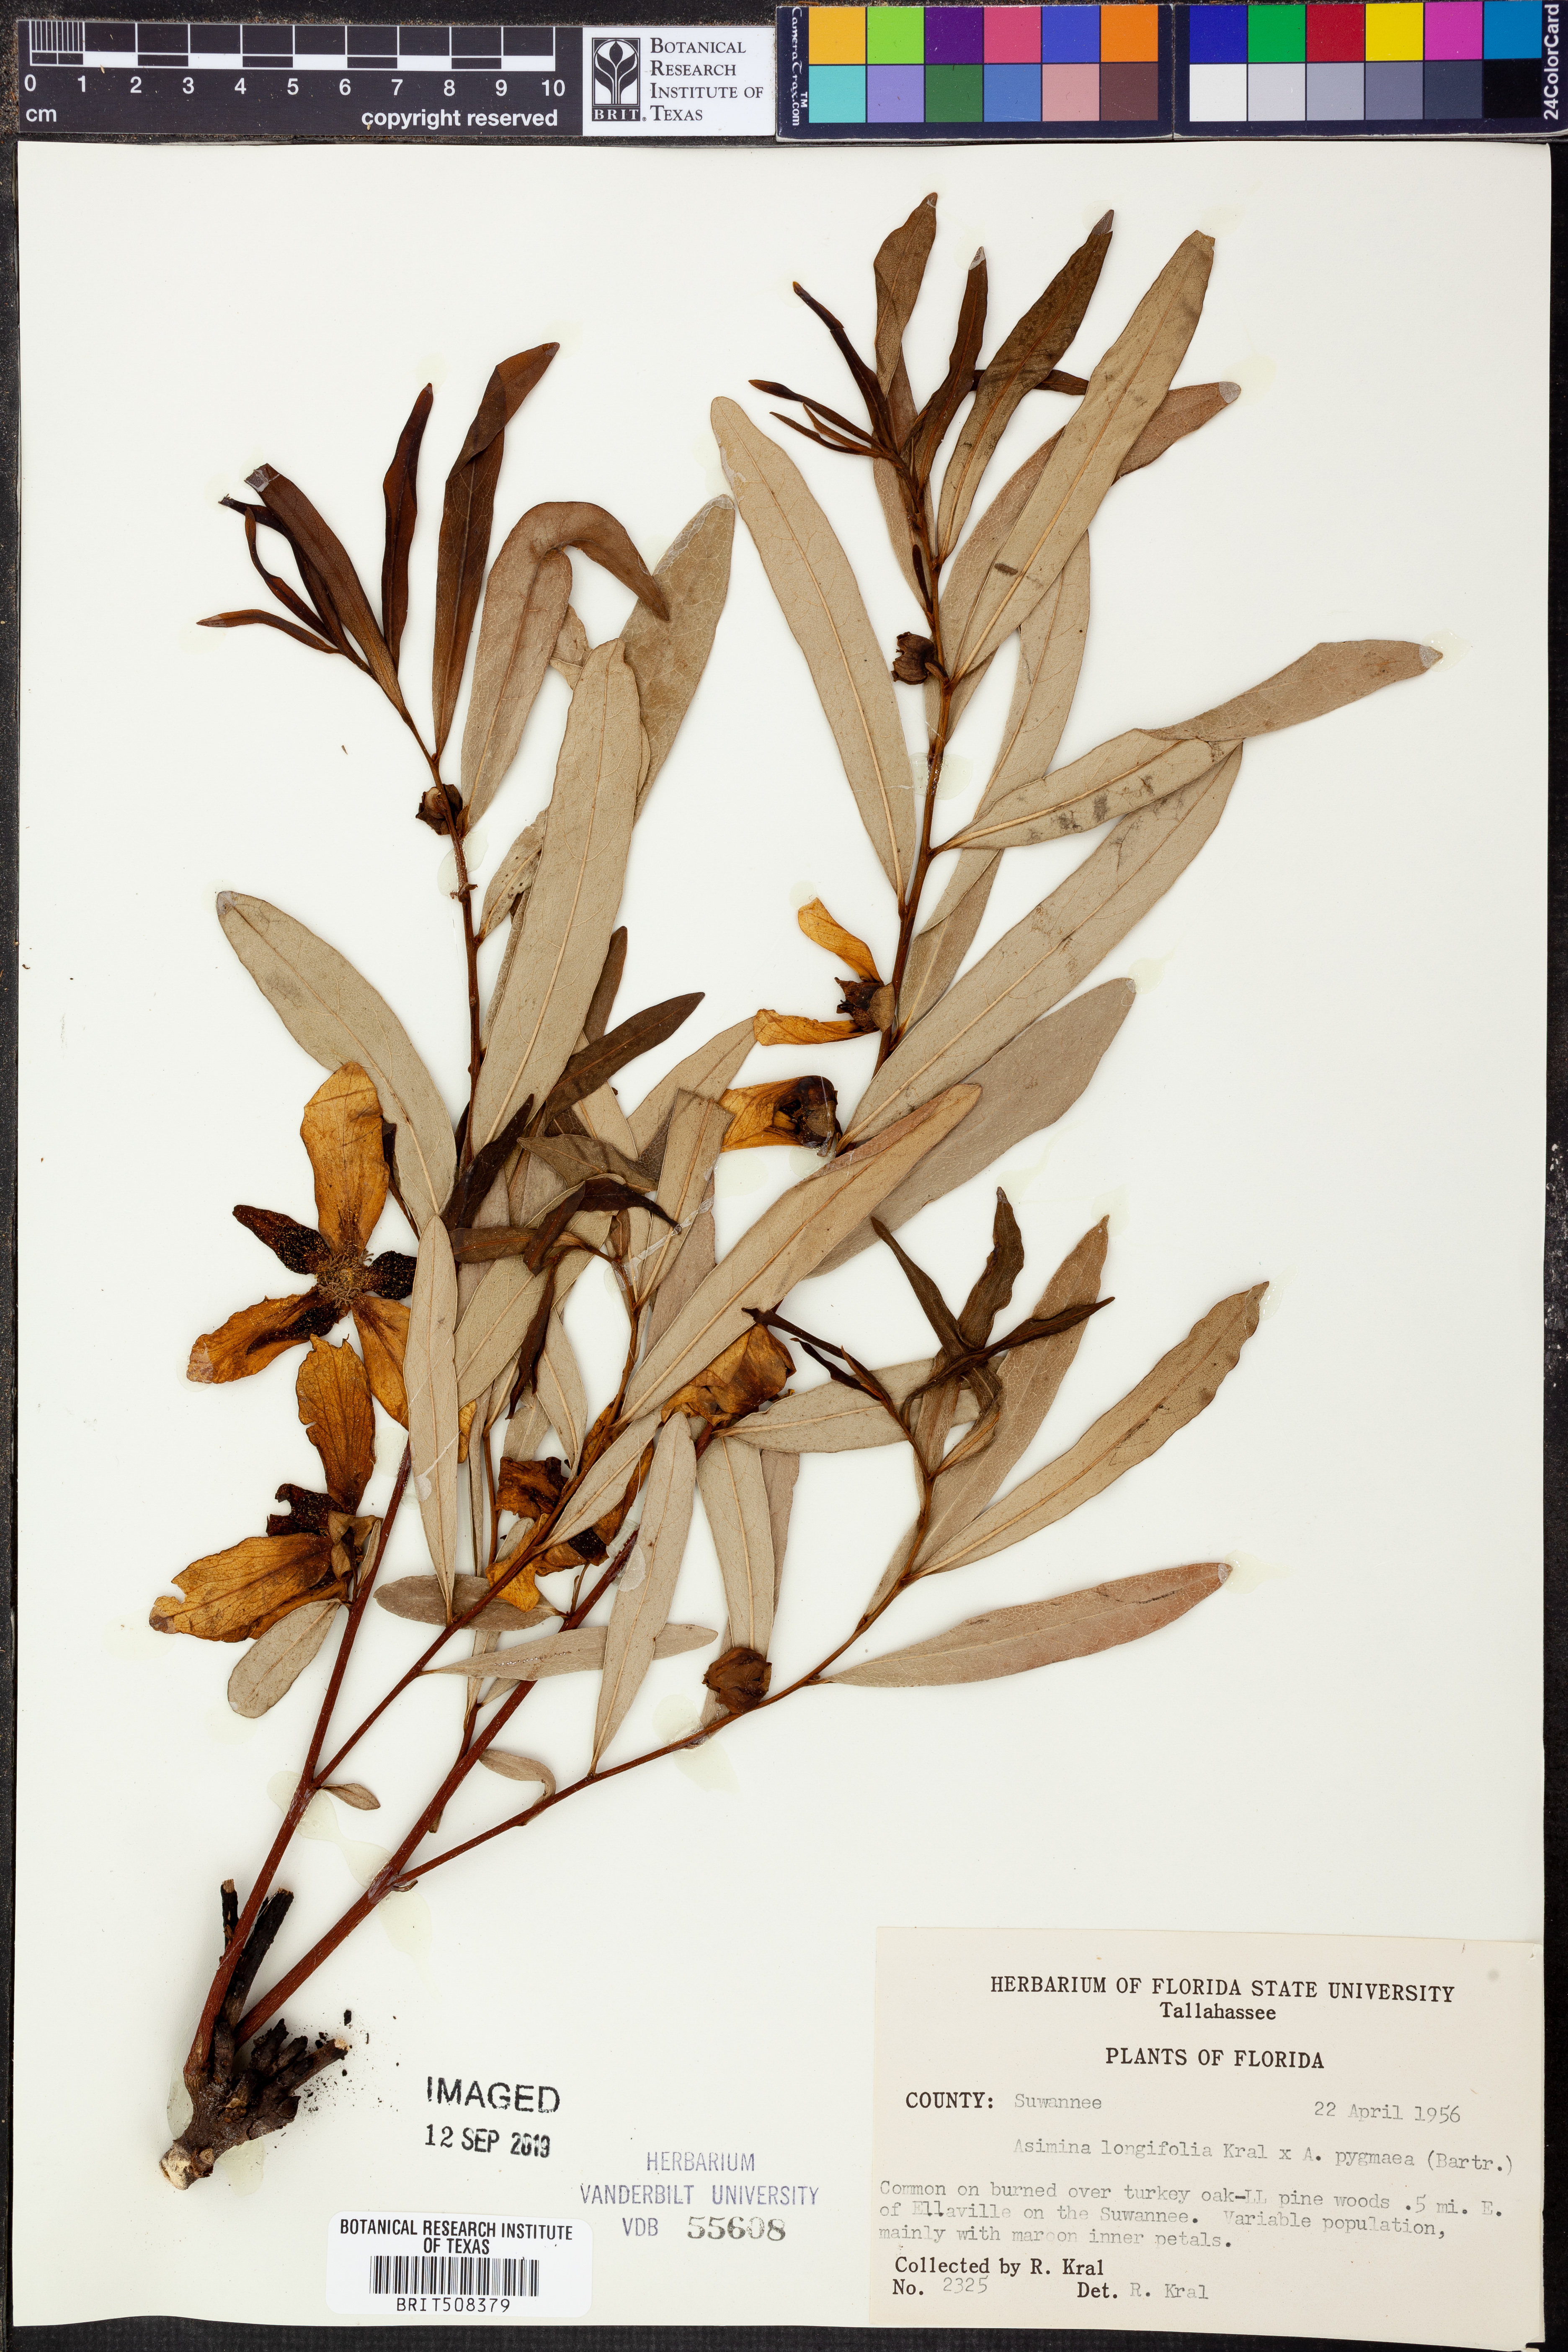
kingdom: Plantae
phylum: Tracheophyta
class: Magnoliopsida
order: Magnoliales
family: Annonaceae
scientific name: Annonaceae
